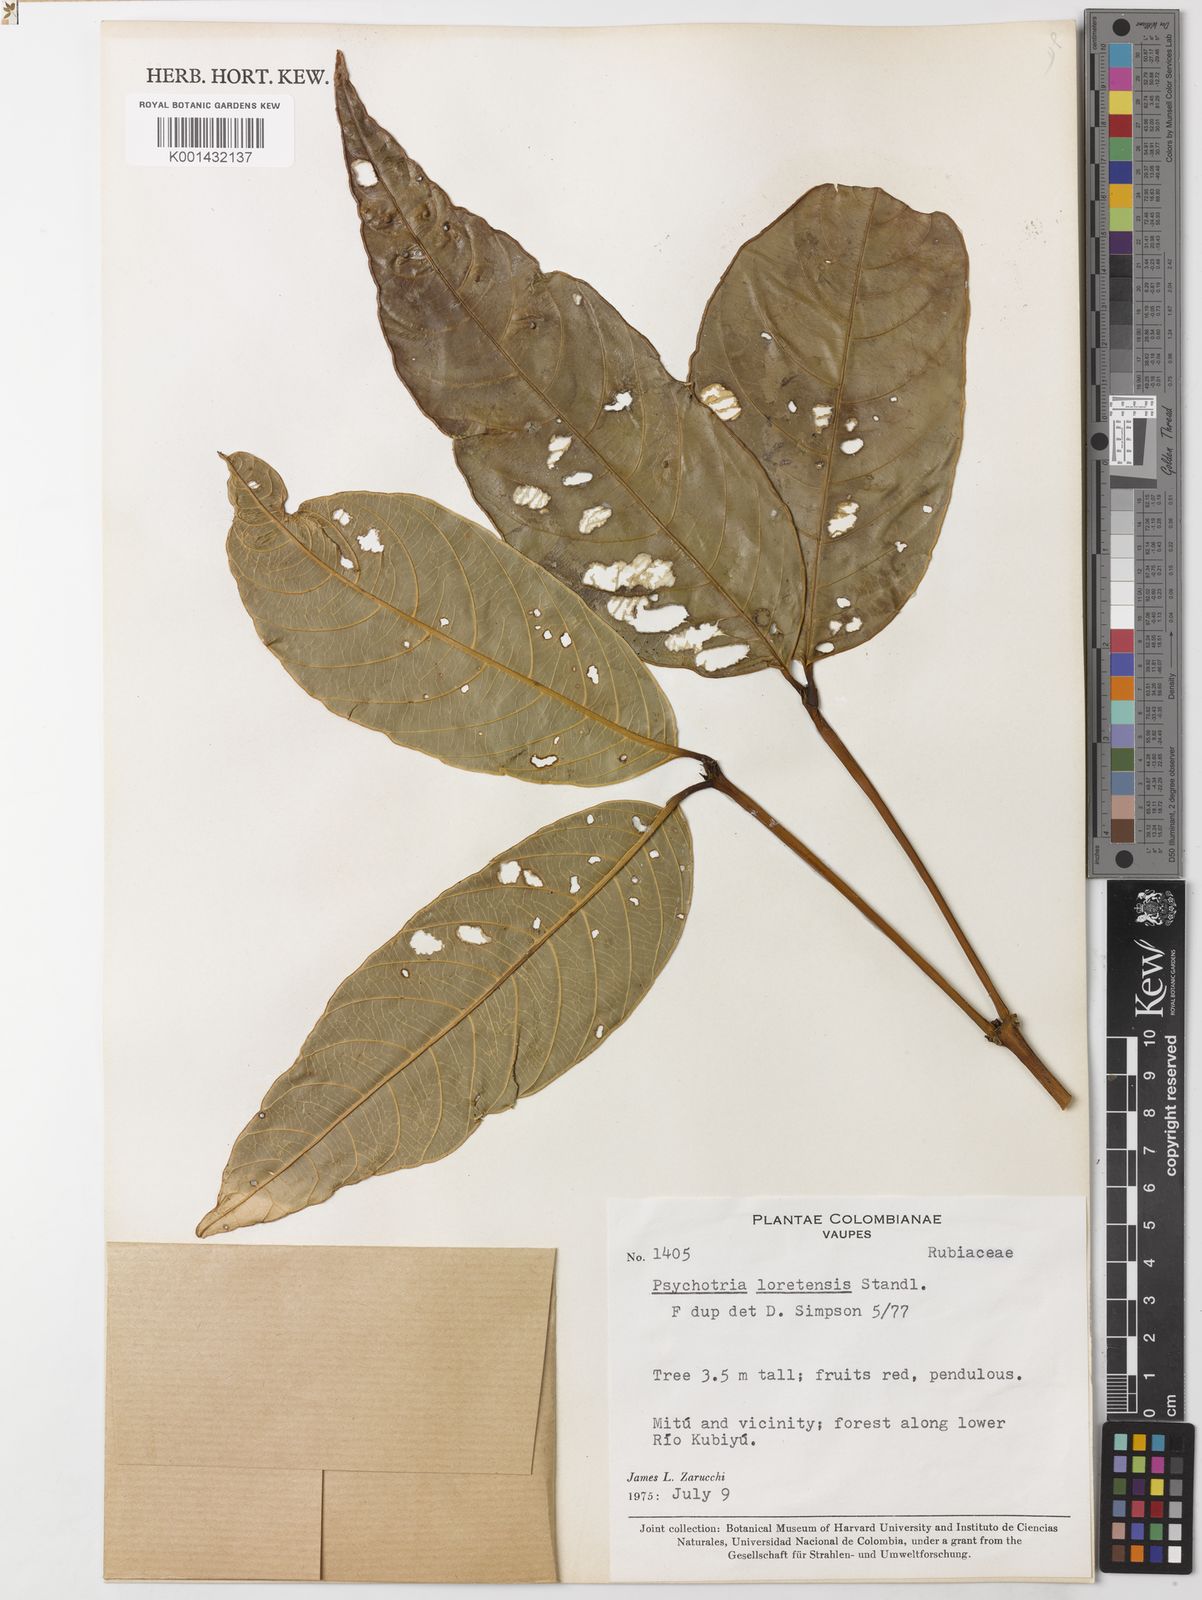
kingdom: Plantae
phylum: Tracheophyta
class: Magnoliopsida
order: Gentianales
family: Rubiaceae
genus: Palicourea
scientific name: Palicourea longicuspis
